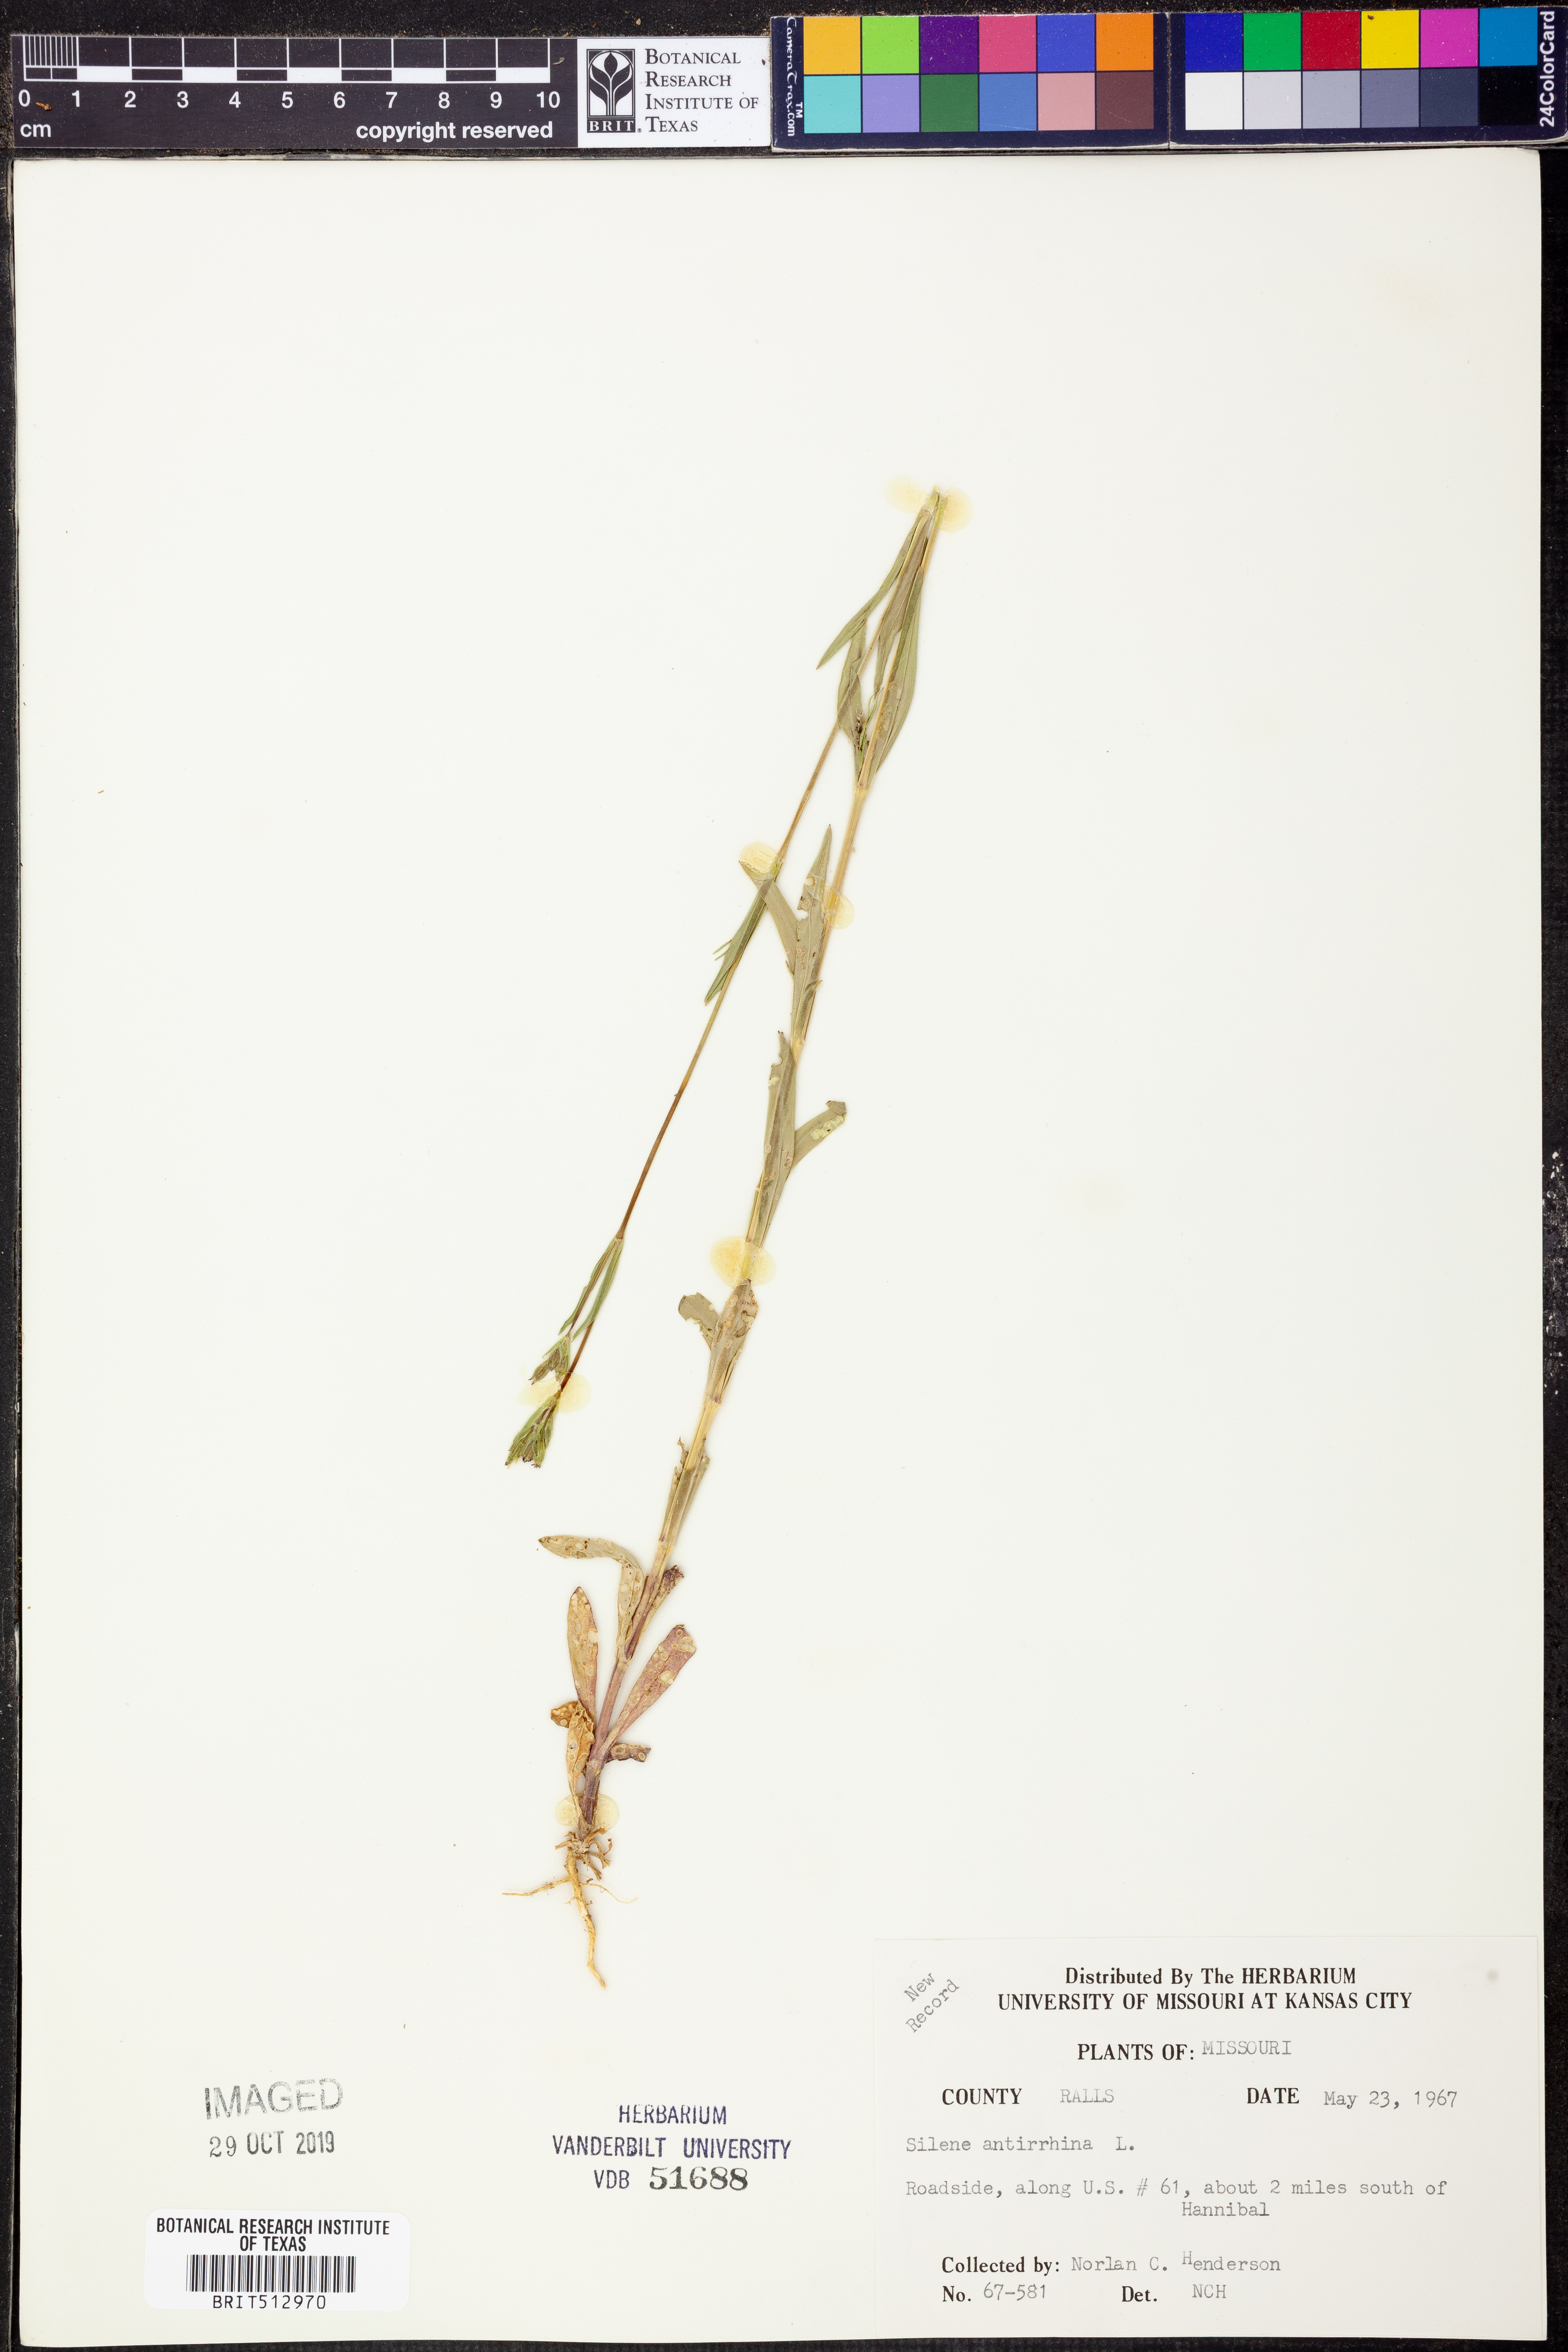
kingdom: Plantae
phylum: Tracheophyta
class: Magnoliopsida
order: Caryophyllales
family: Caryophyllaceae
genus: Silene
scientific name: Silene antirrhina
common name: Sleepy catchfly
